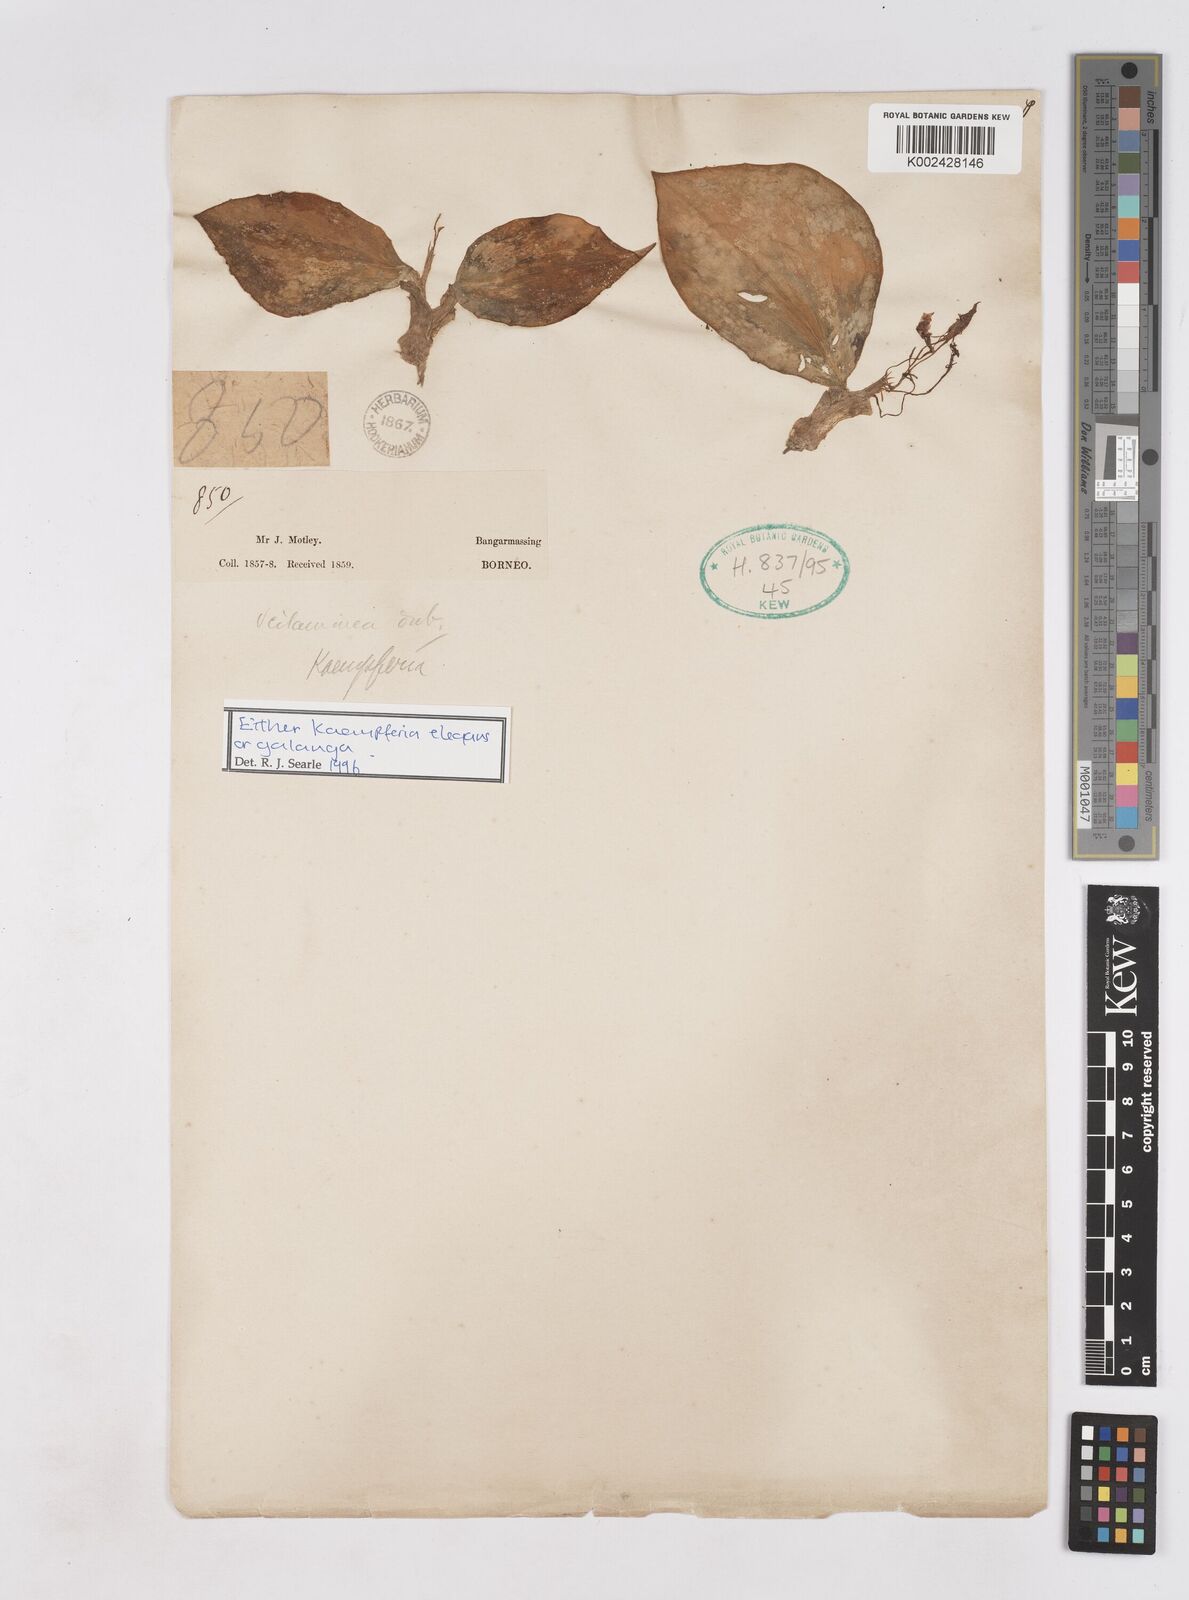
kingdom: Plantae
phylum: Tracheophyta
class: Liliopsida
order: Zingiberales
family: Zingiberaceae
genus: Kaempferia
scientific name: Kaempferia
